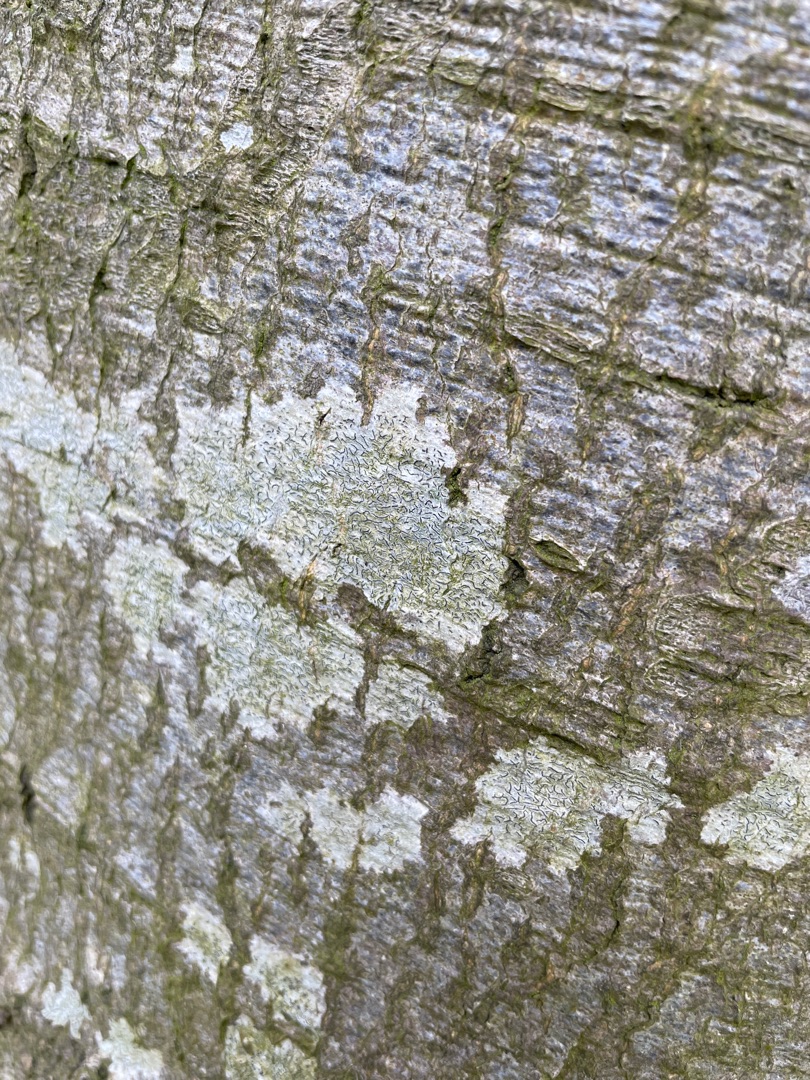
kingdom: Fungi
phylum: Ascomycota
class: Lecanoromycetes
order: Ostropales
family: Graphidaceae
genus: Graphis
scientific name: Graphis scripta
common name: Almindelig skriftlav
